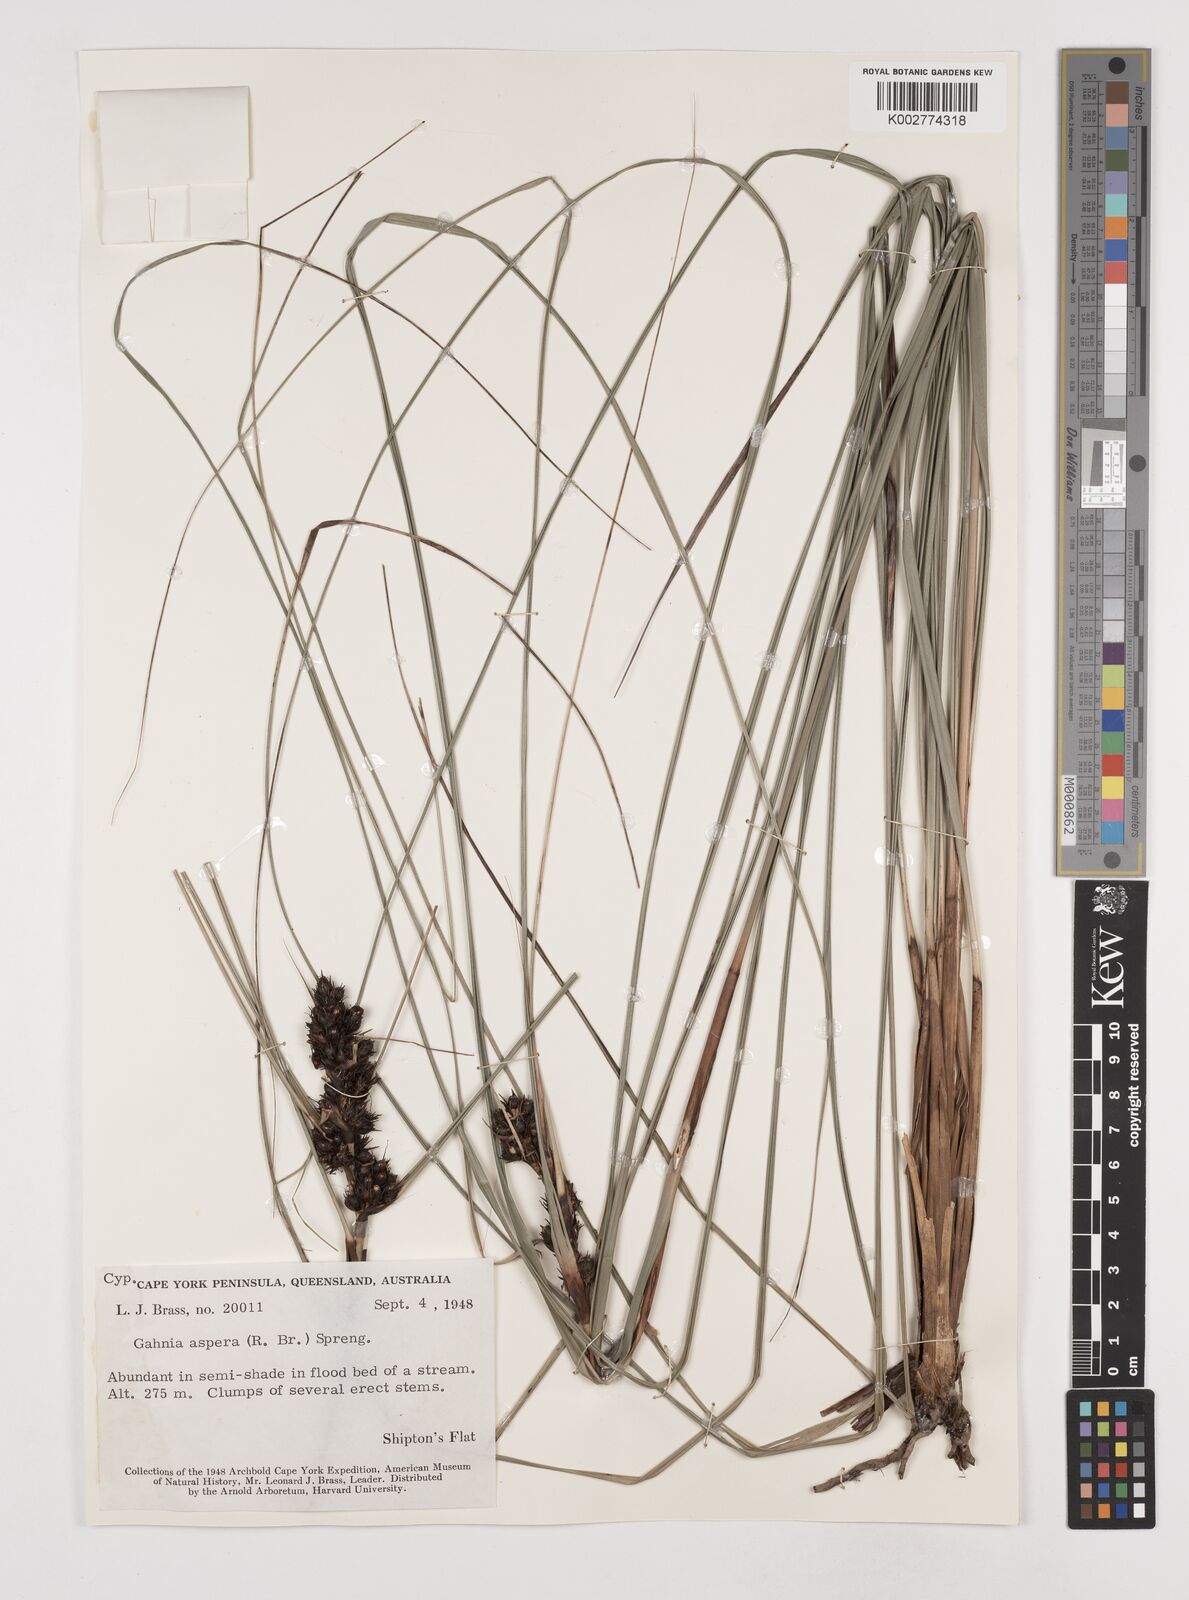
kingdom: Plantae
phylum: Tracheophyta
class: Liliopsida
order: Poales
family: Cyperaceae
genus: Gahnia
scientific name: Gahnia aspera
